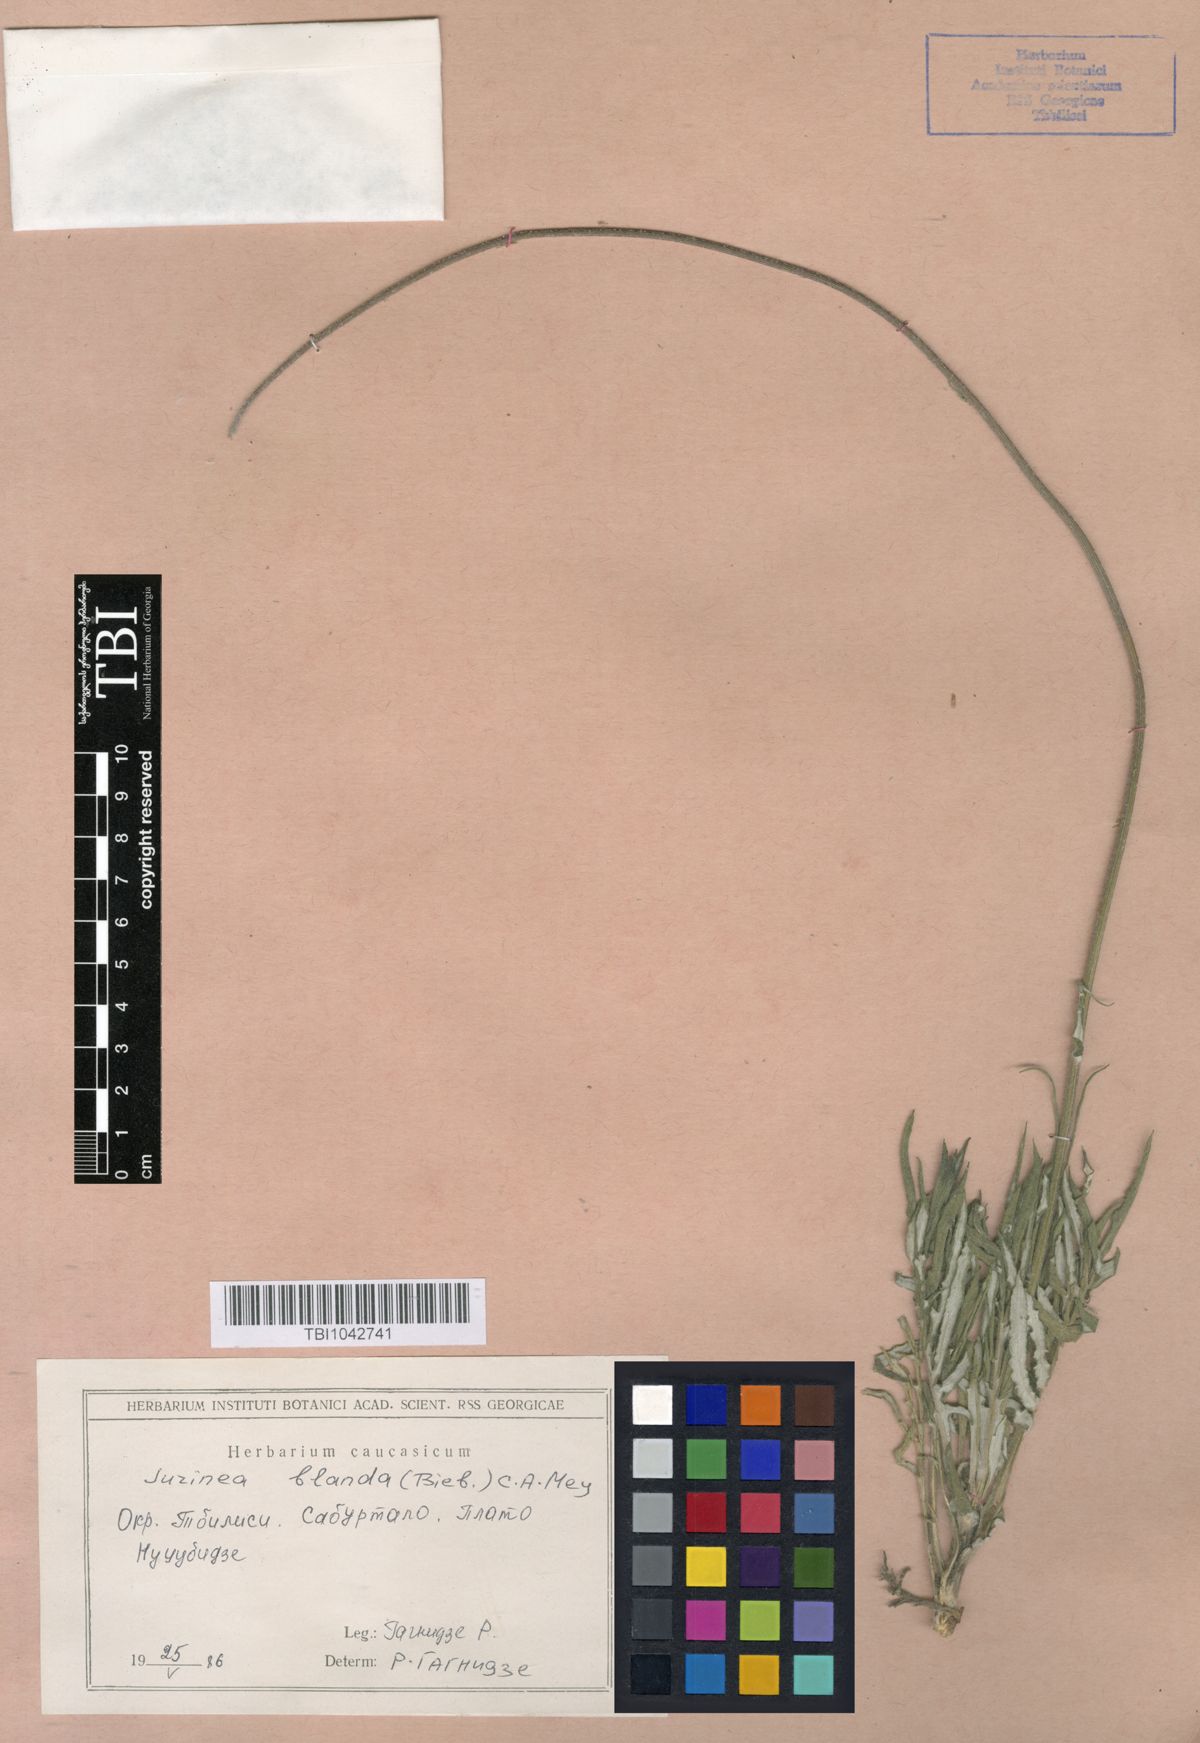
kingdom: Plantae
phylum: Tracheophyta
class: Magnoliopsida
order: Asterales
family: Asteraceae
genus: Jurinea
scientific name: Jurinea blanda
